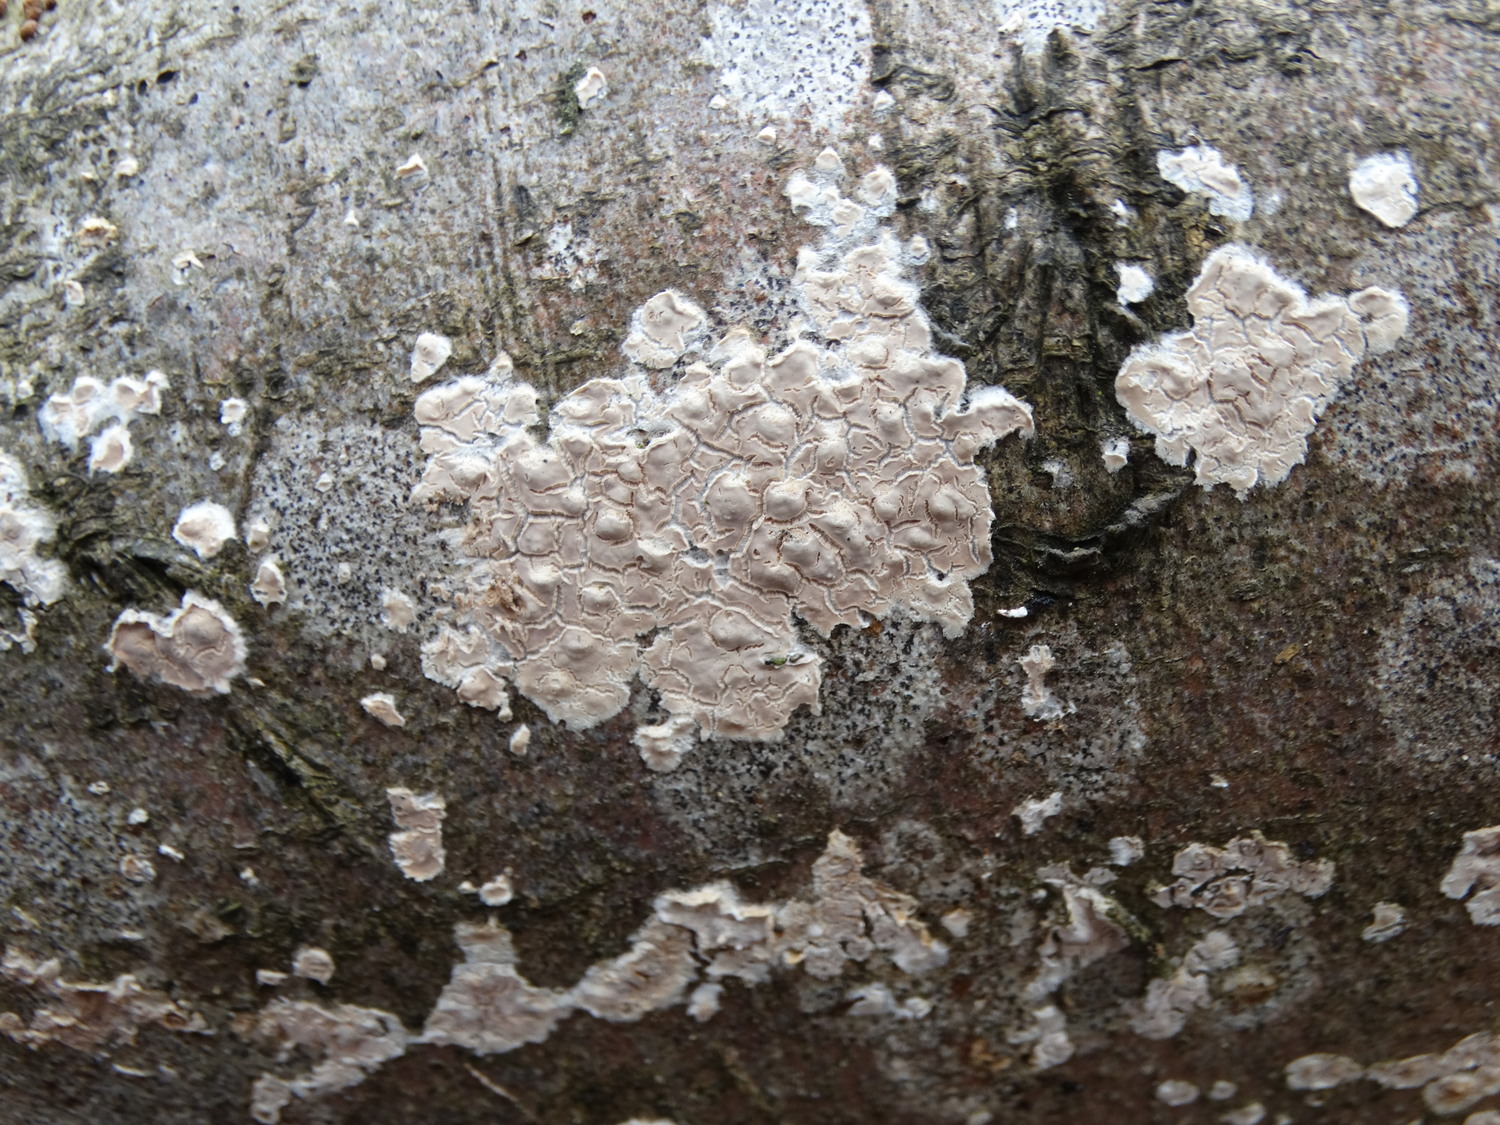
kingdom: Fungi
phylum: Basidiomycota
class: Agaricomycetes
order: Agaricales
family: Physalacriaceae
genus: Cylindrobasidium
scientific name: Cylindrobasidium evolvens
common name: sprækkehinde
